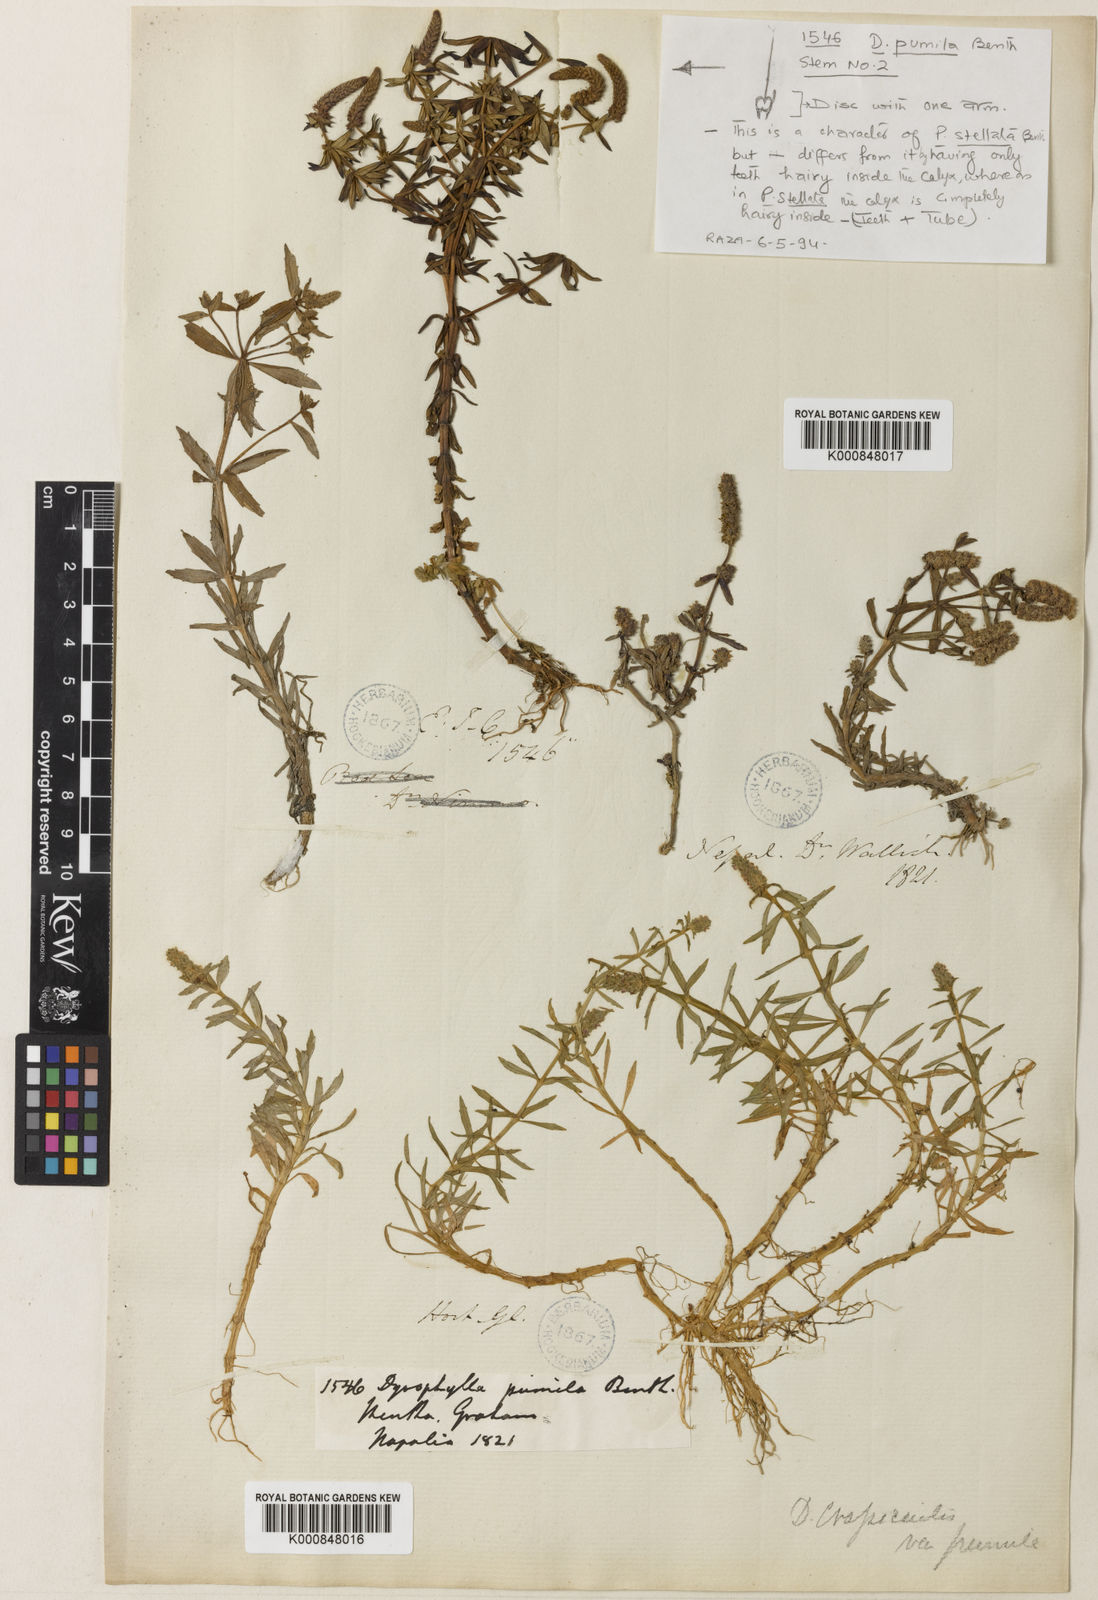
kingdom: Plantae
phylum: Tracheophyta
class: Magnoliopsida
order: Lamiales
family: Lamiaceae
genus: Pogostemon
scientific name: Pogostemon crassicaulis
